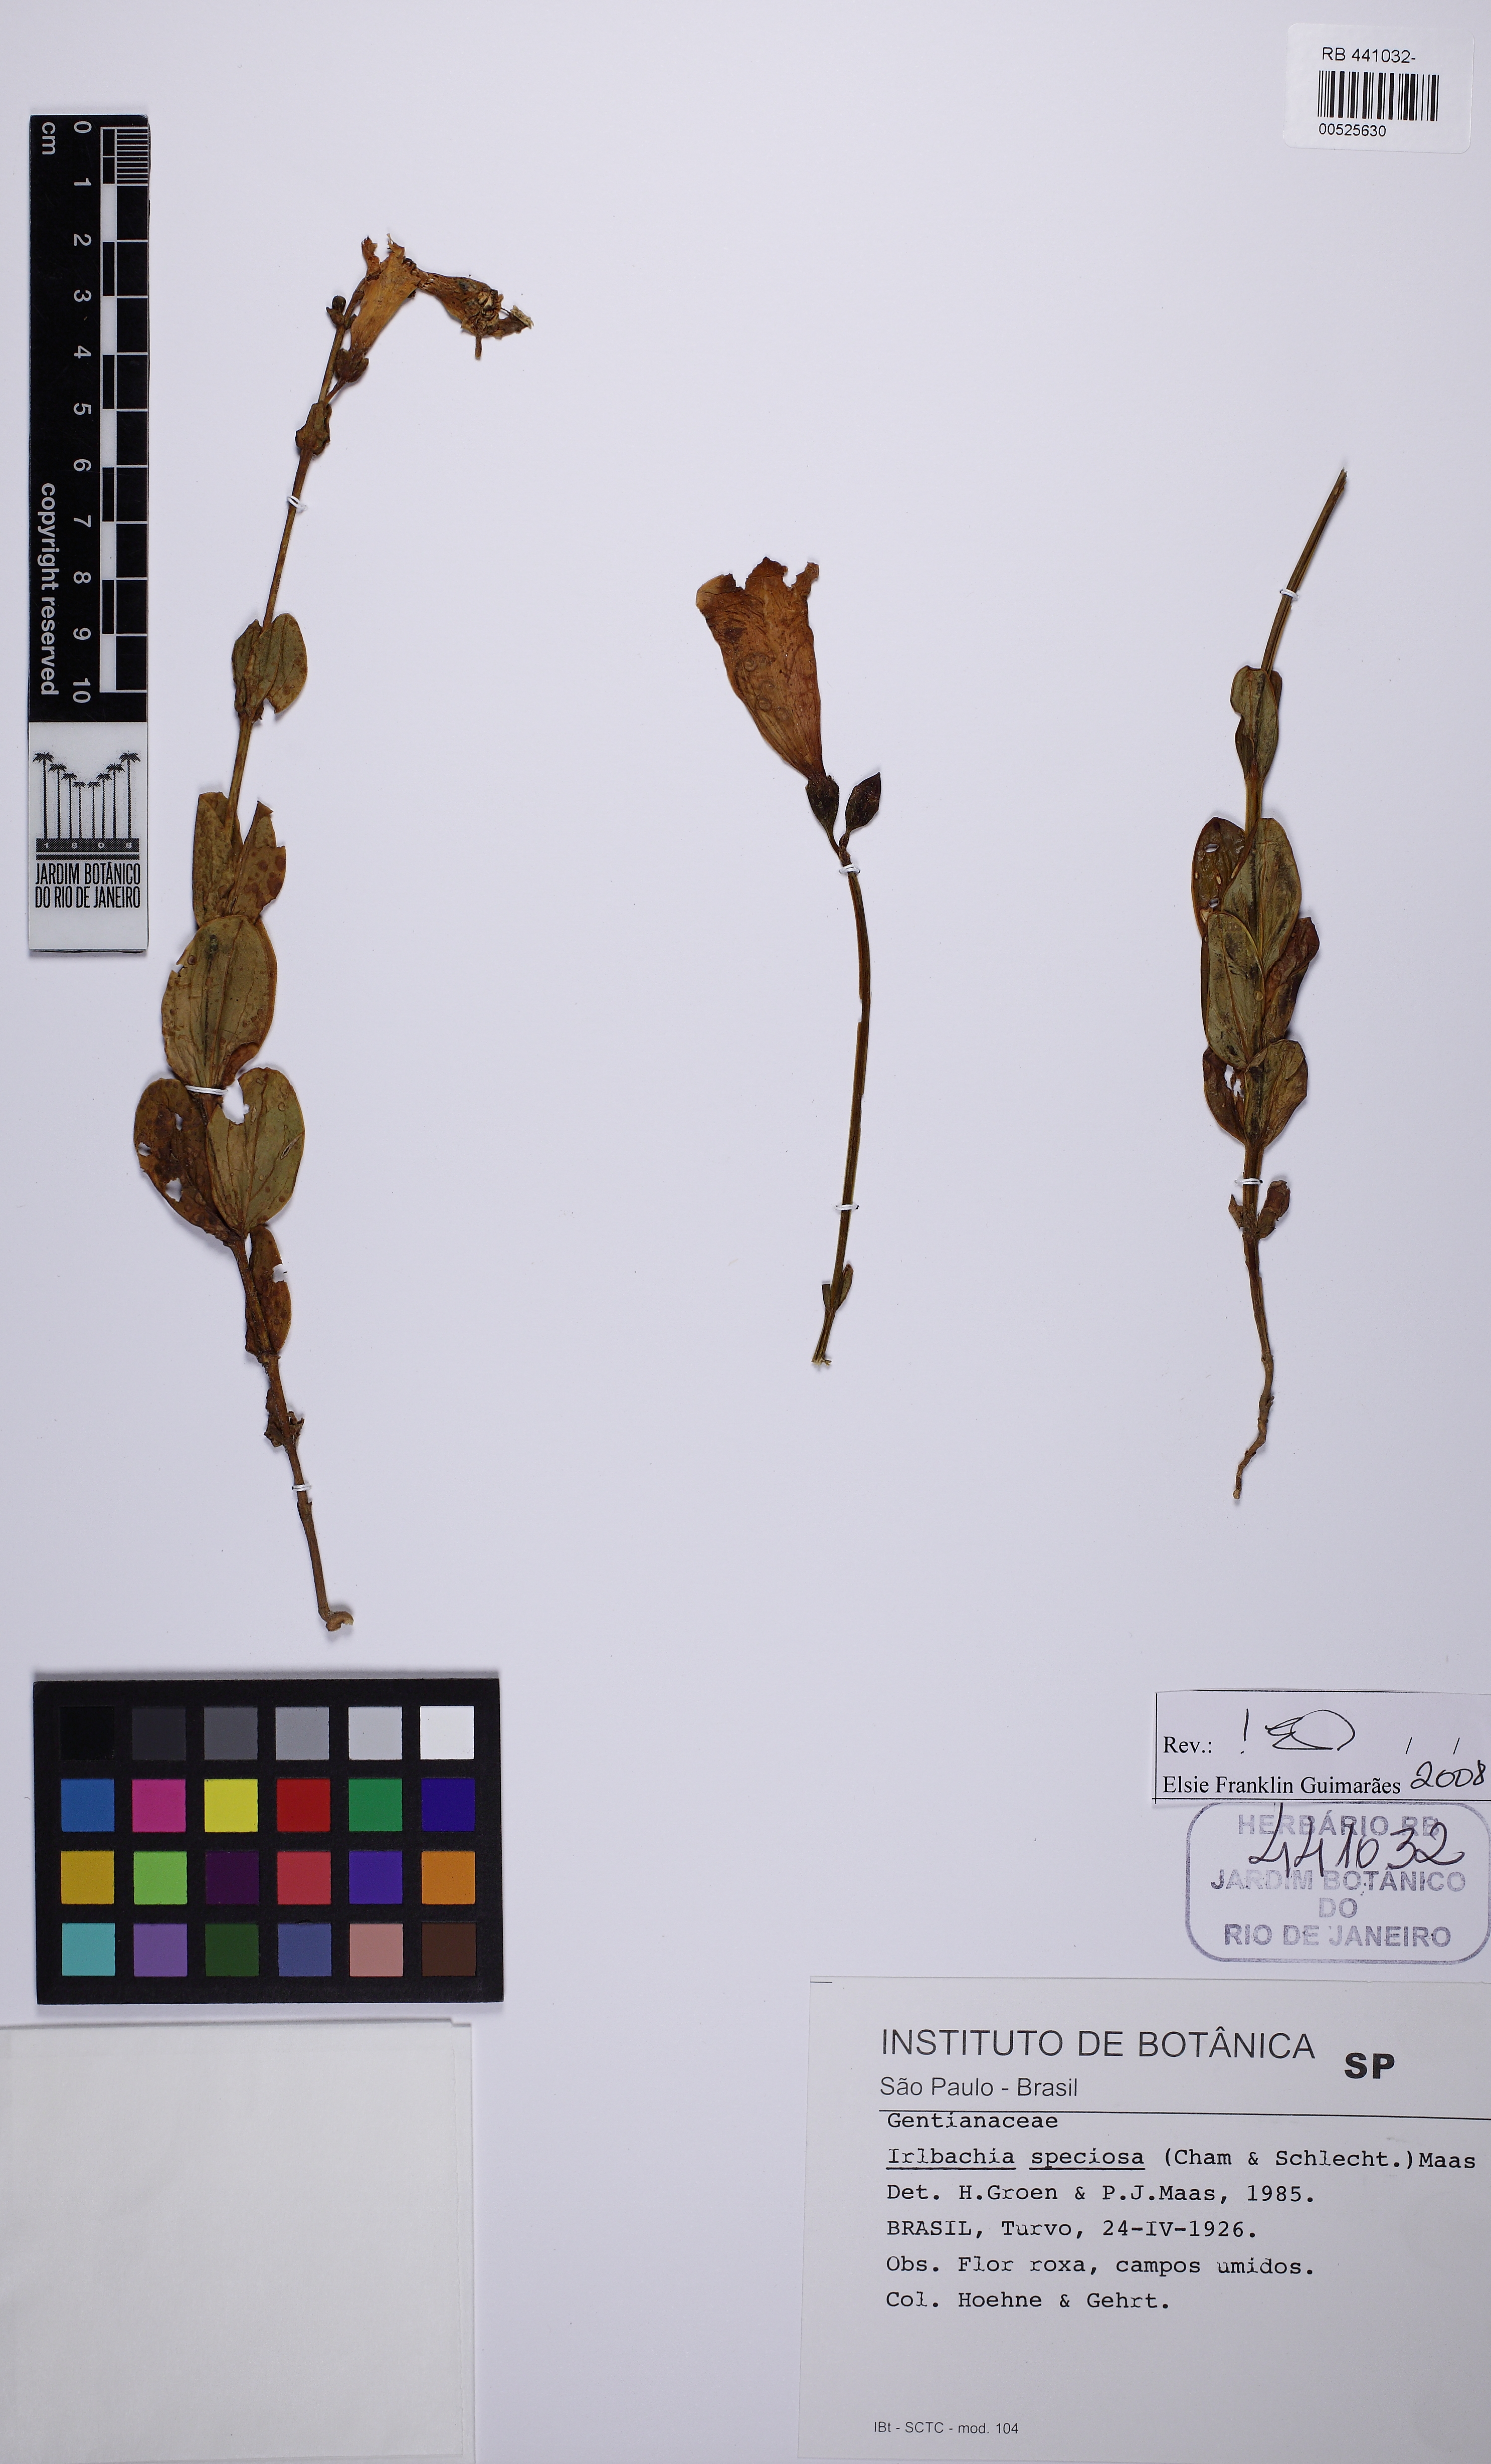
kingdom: Plantae
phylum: Tracheophyta
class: Magnoliopsida
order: Gentianales
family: Gentianaceae
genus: Calolisianthus
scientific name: Calolisianthus speciosus
